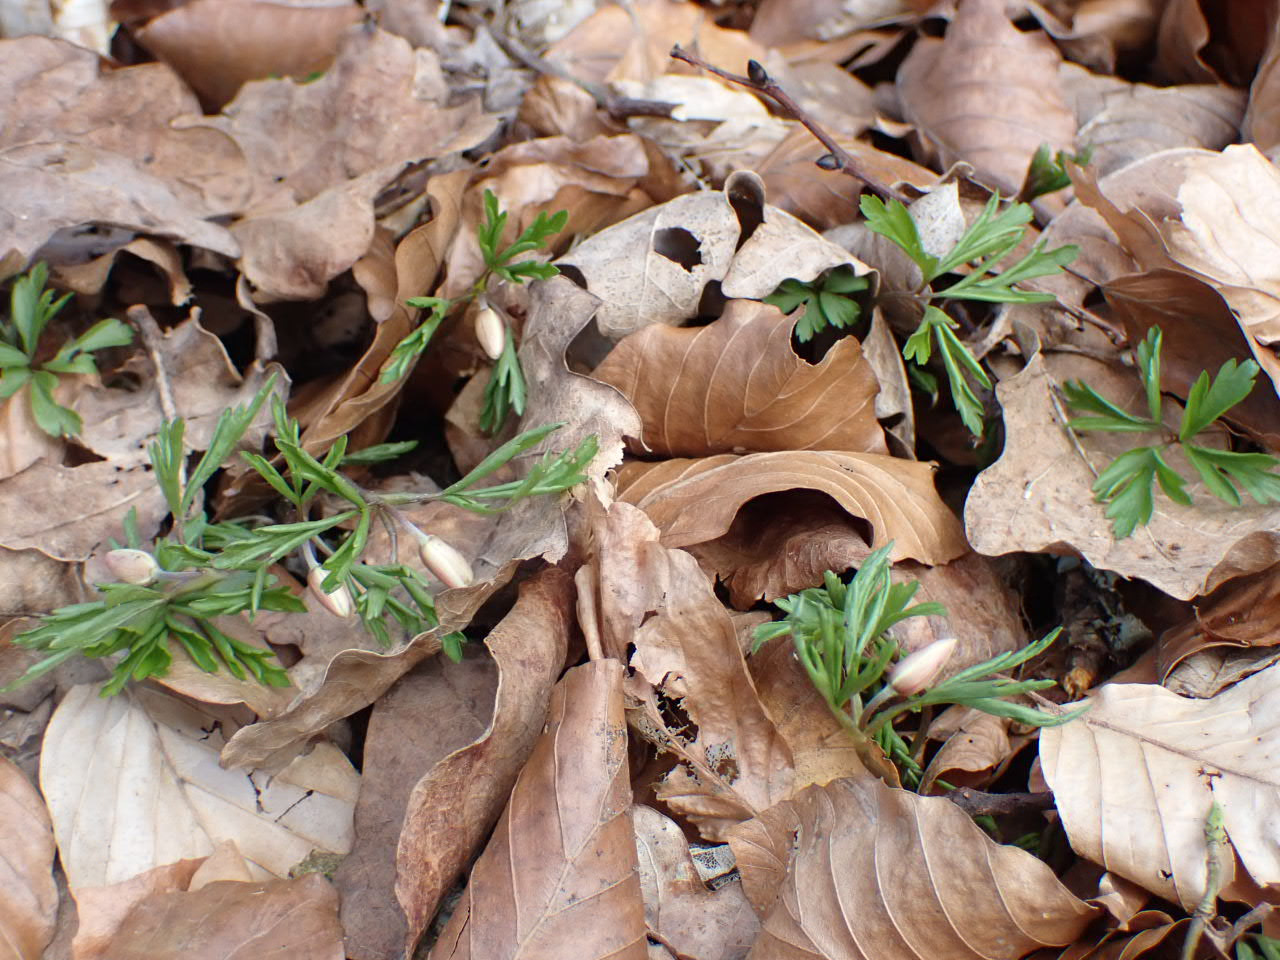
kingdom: Plantae
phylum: Tracheophyta
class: Magnoliopsida
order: Ranunculales
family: Ranunculaceae
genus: Anemone
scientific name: Anemone nemorosa
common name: Hvid anemone
